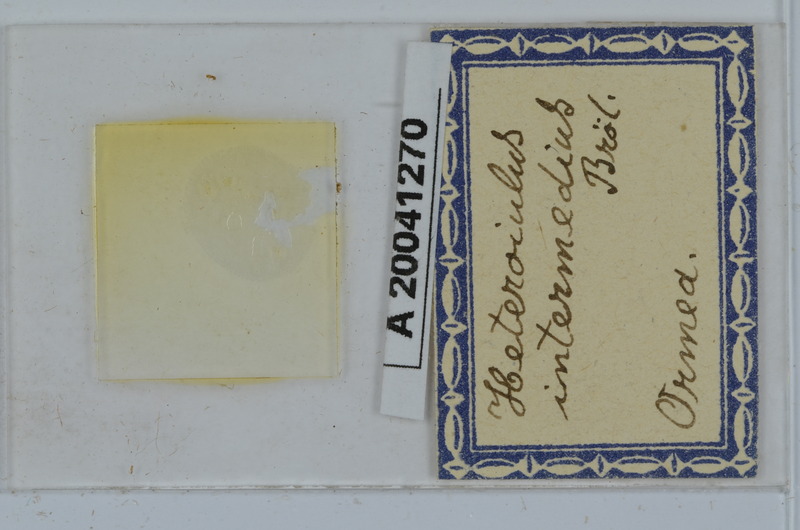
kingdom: Animalia
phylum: Arthropoda
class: Diplopoda
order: Julida
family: Julidae
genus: Heteroiulus
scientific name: Heteroiulus intermedius
